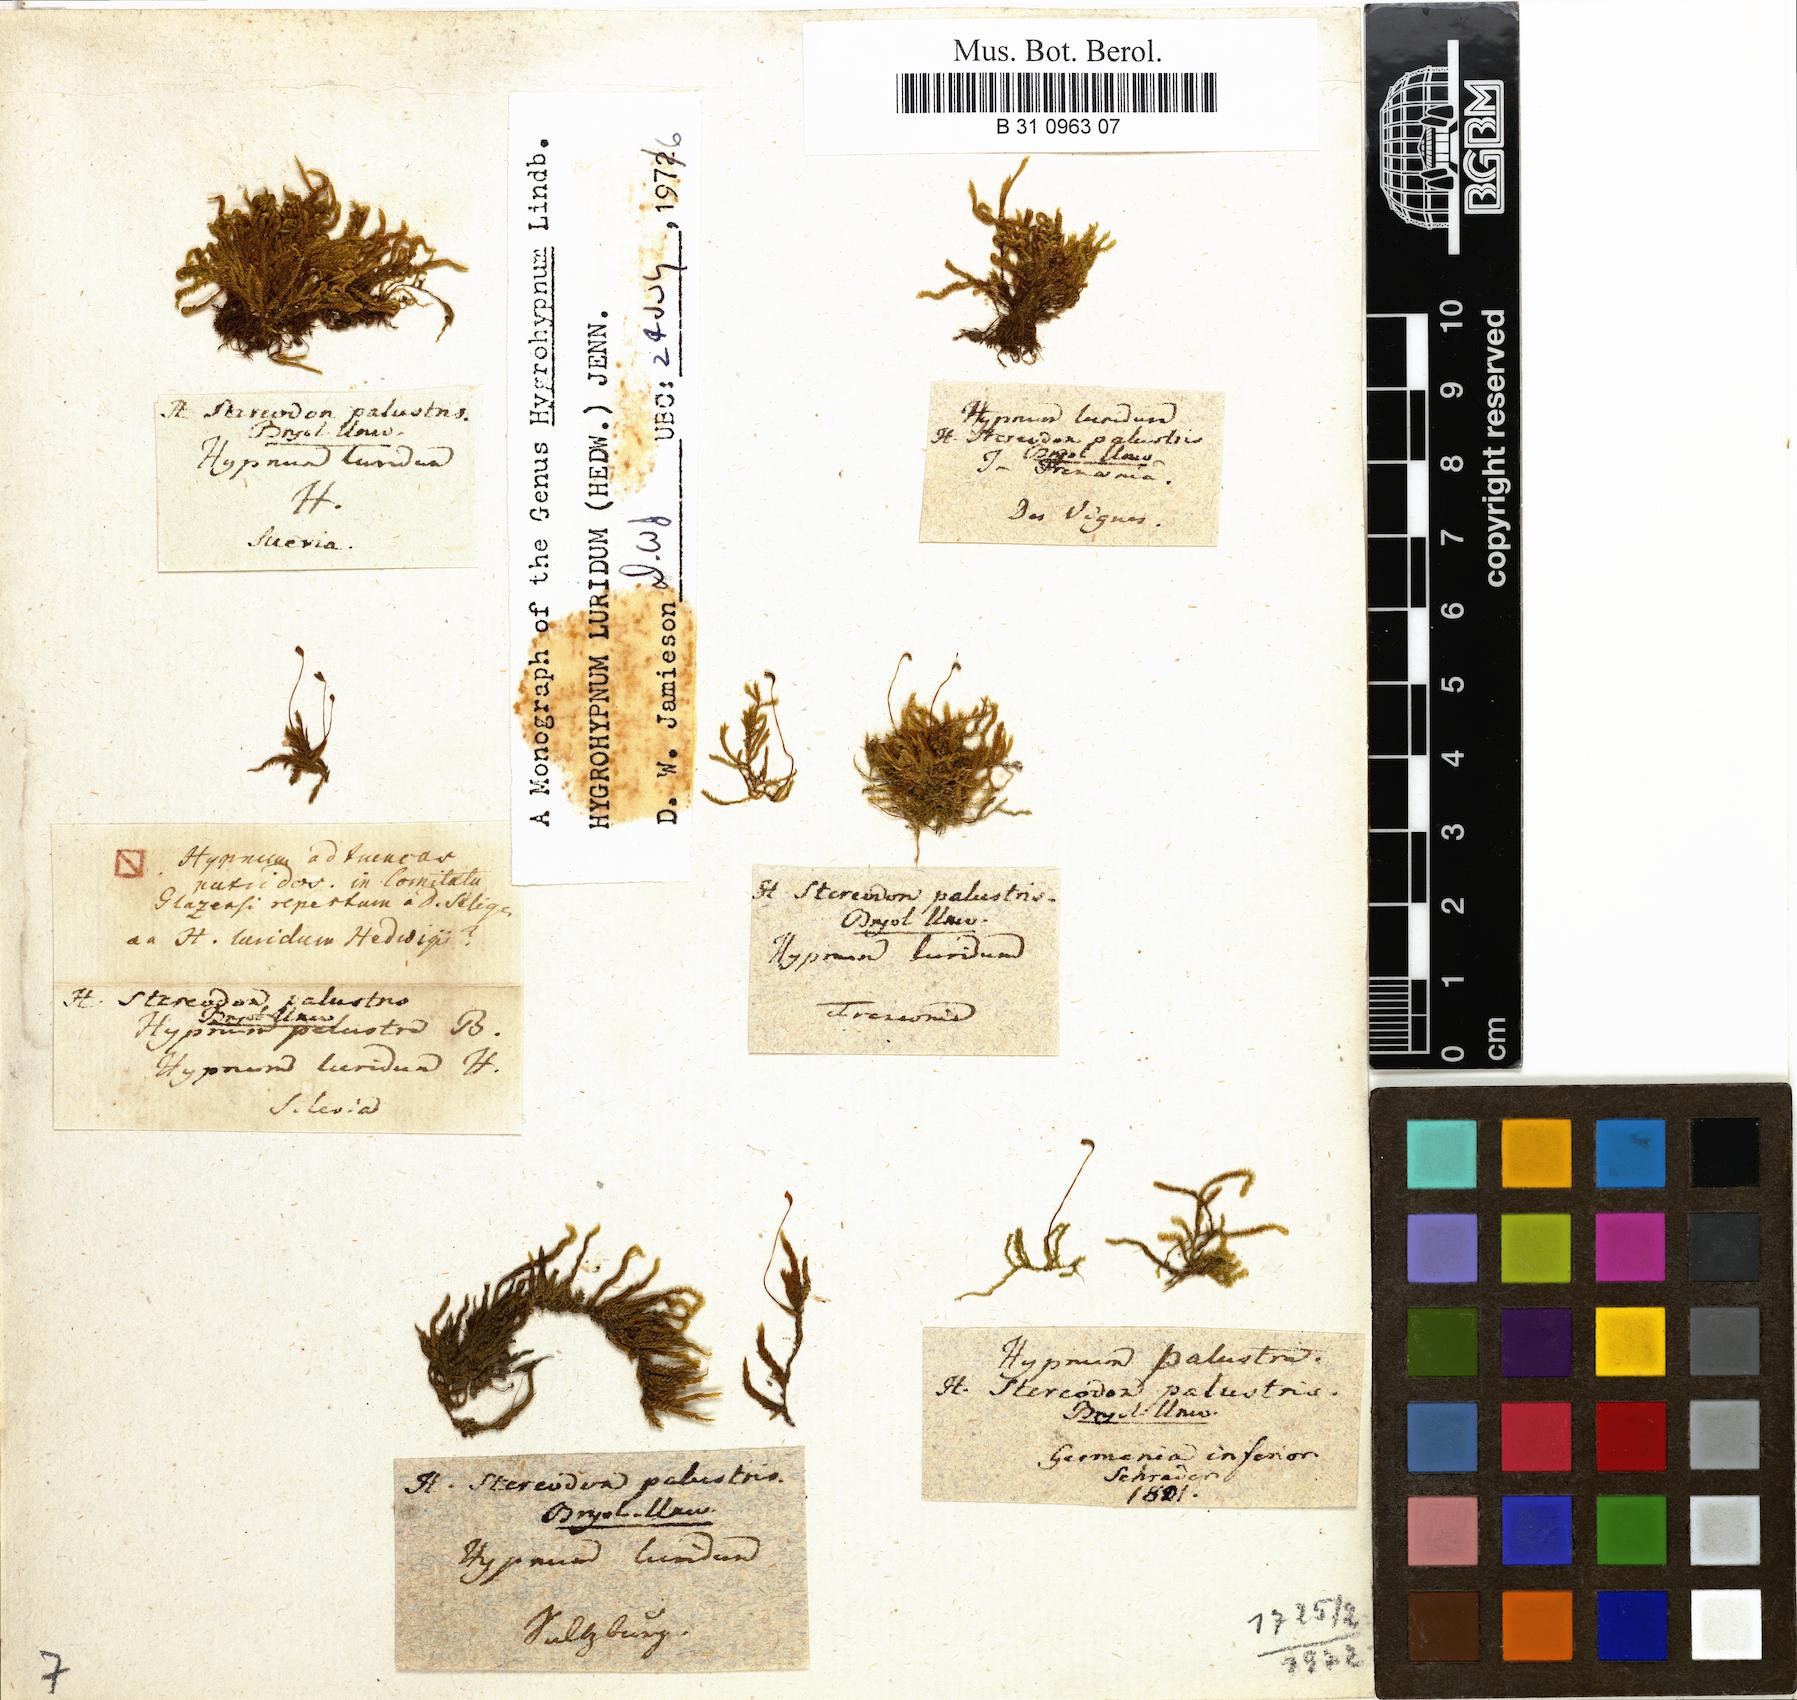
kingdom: Plantae
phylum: Bryophyta
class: Bryopsida
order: Hypnales
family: Amblystegiaceae
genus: Hygrohypnum
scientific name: Hygrohypnum luridum
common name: Drab brook moss
